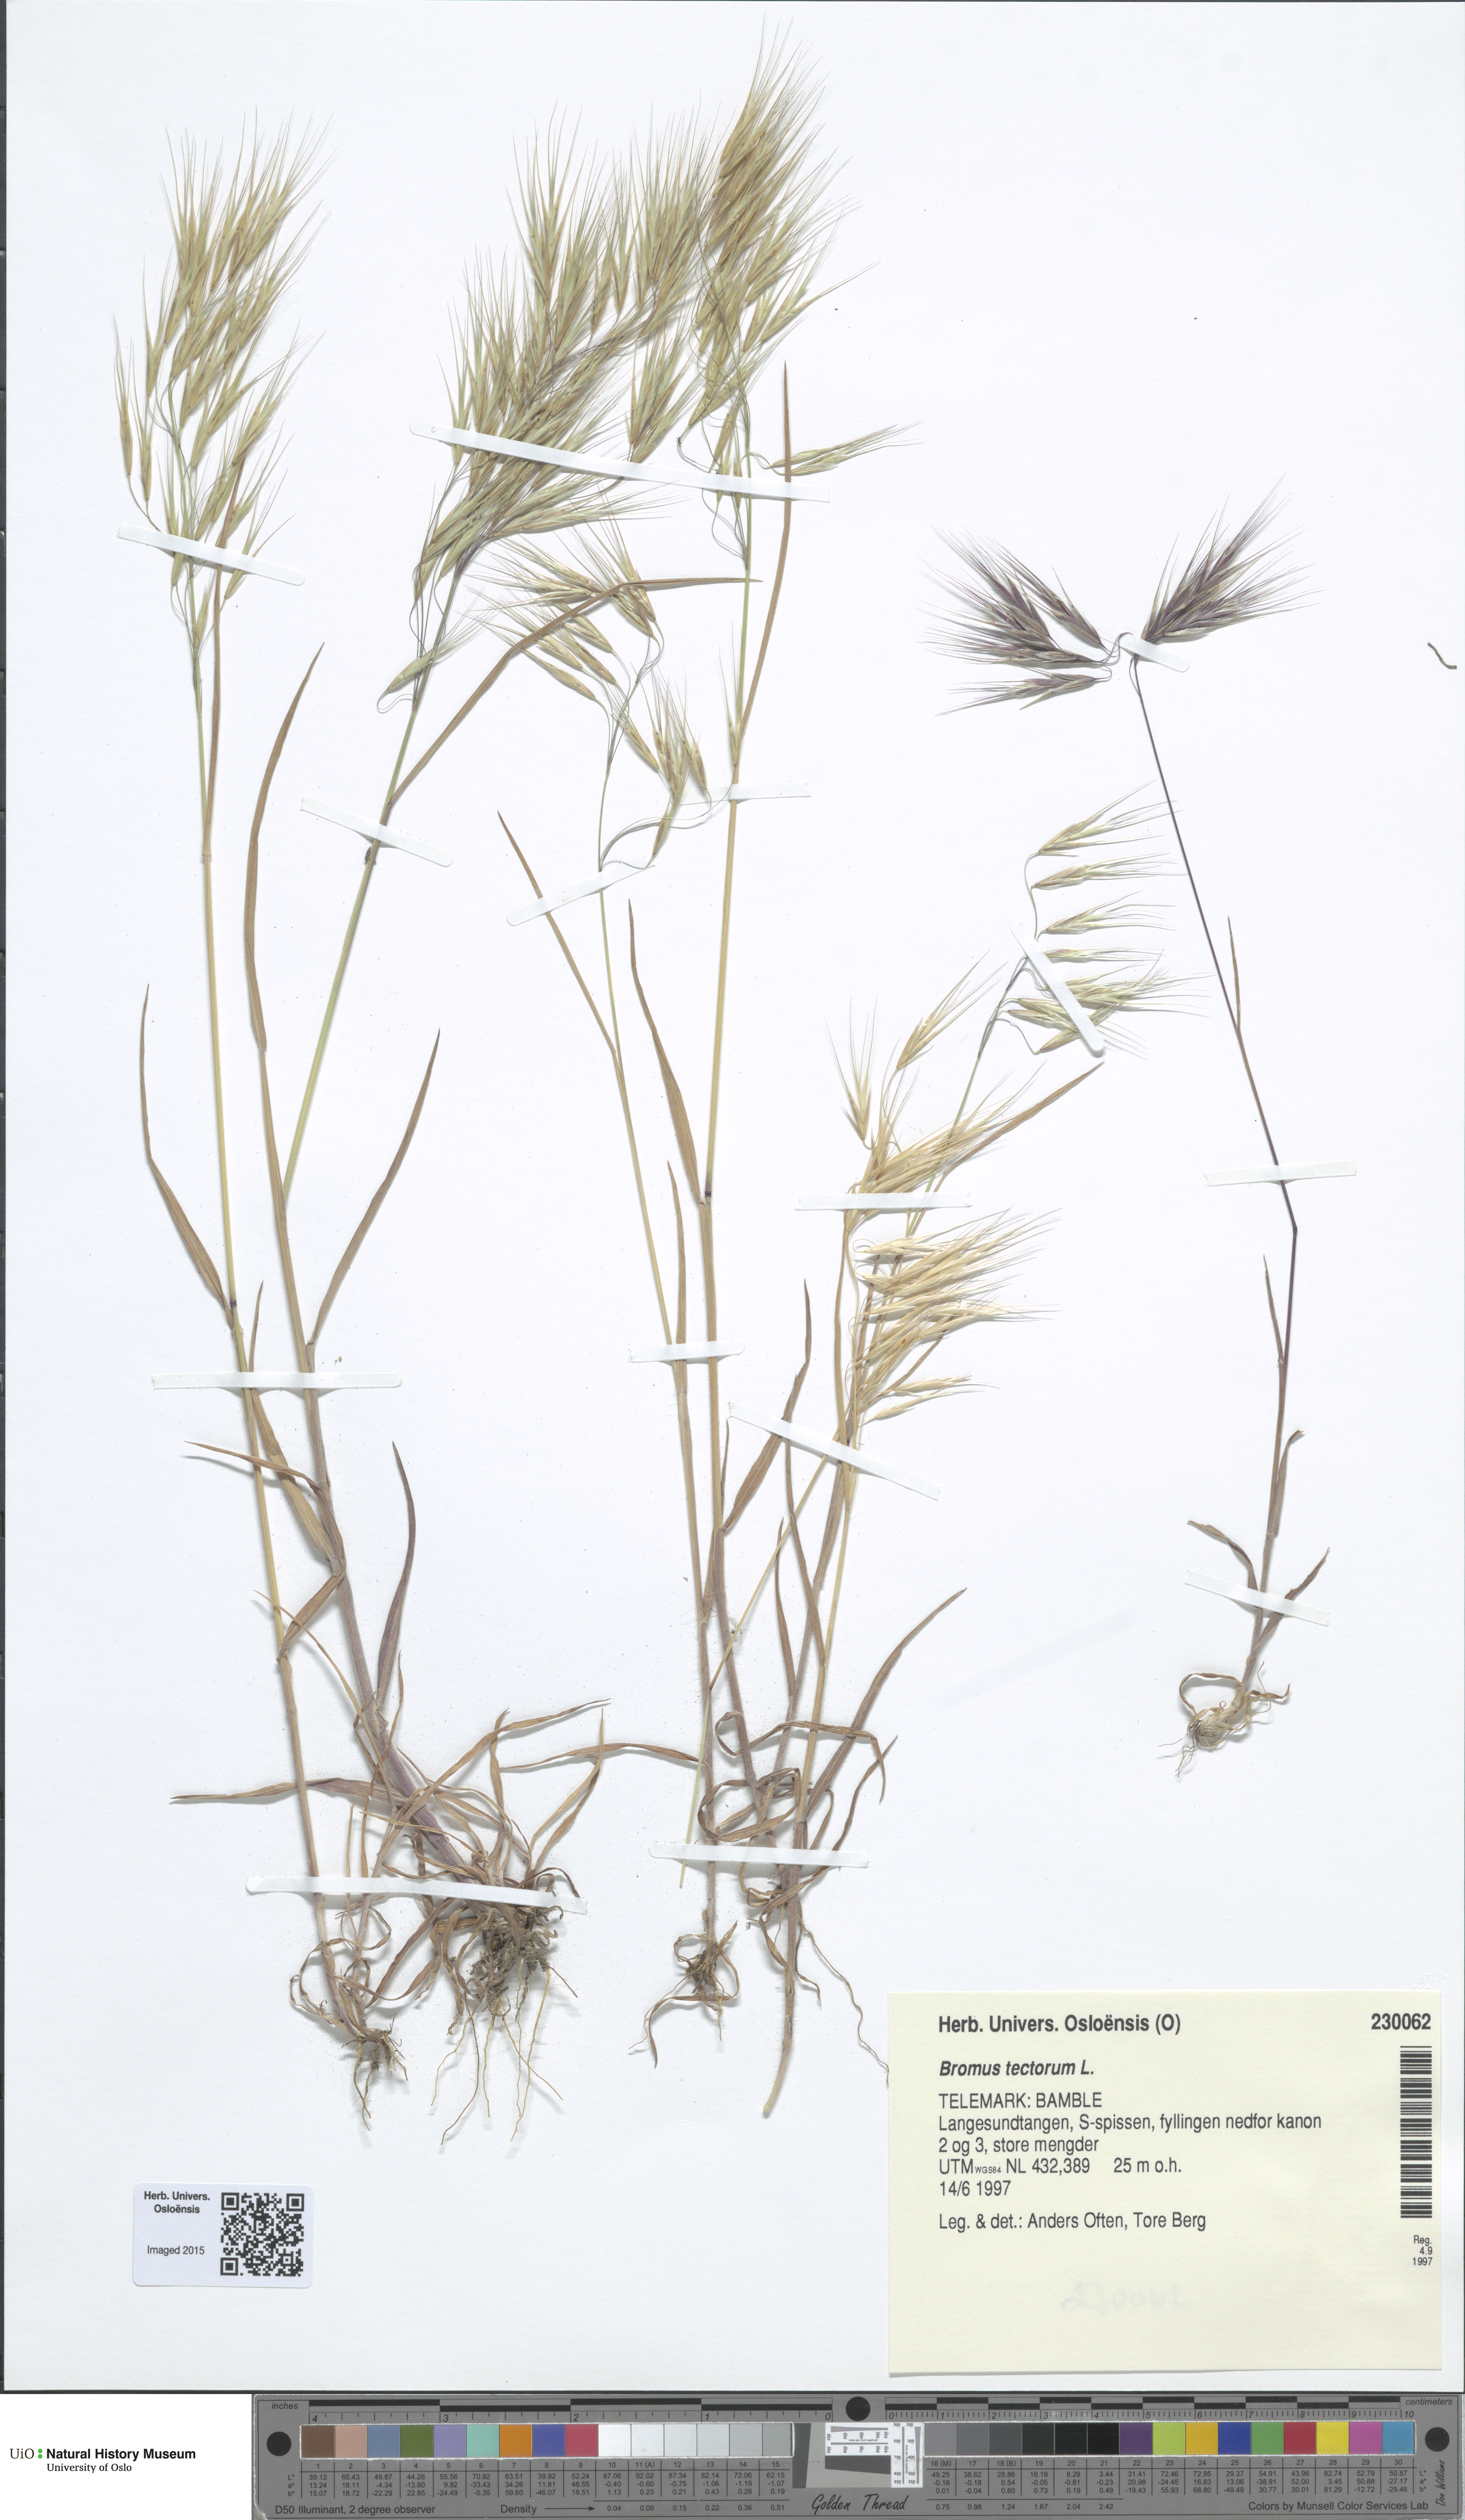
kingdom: Plantae
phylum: Tracheophyta
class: Liliopsida
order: Poales
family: Poaceae
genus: Bromus
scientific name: Bromus tectorum
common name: Cheatgrass
